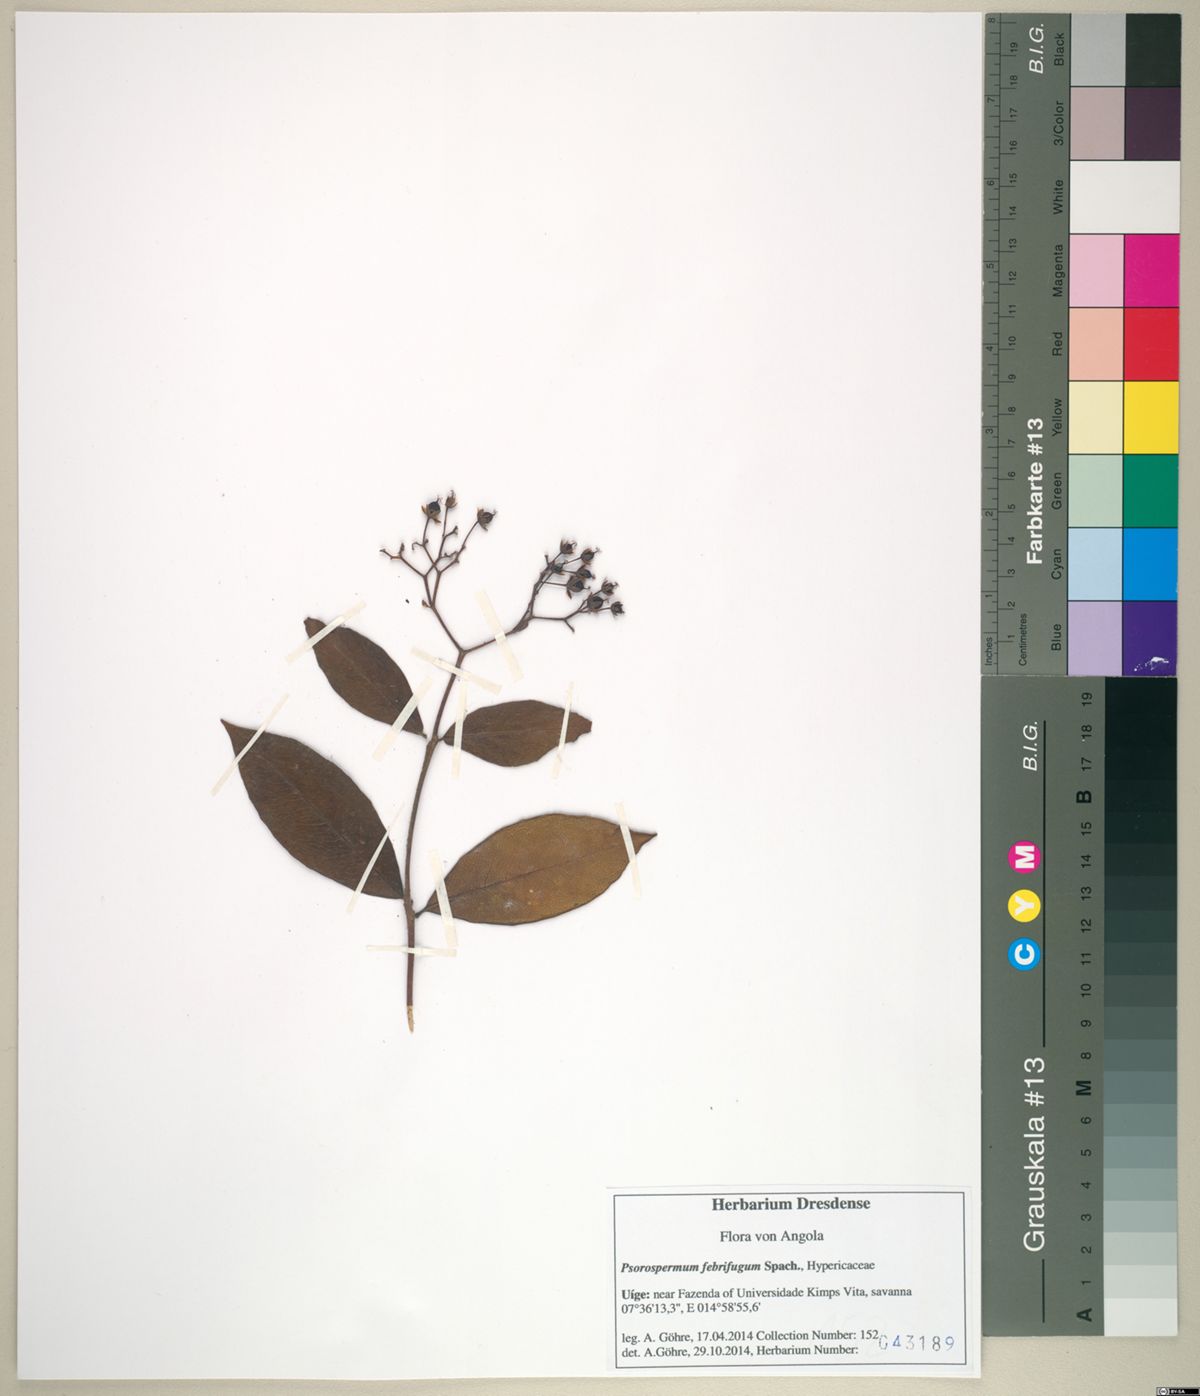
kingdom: Plantae
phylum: Tracheophyta
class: Magnoliopsida
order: Malpighiales
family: Hypericaceae
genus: Psorospermum
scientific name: Psorospermum febrifugum
